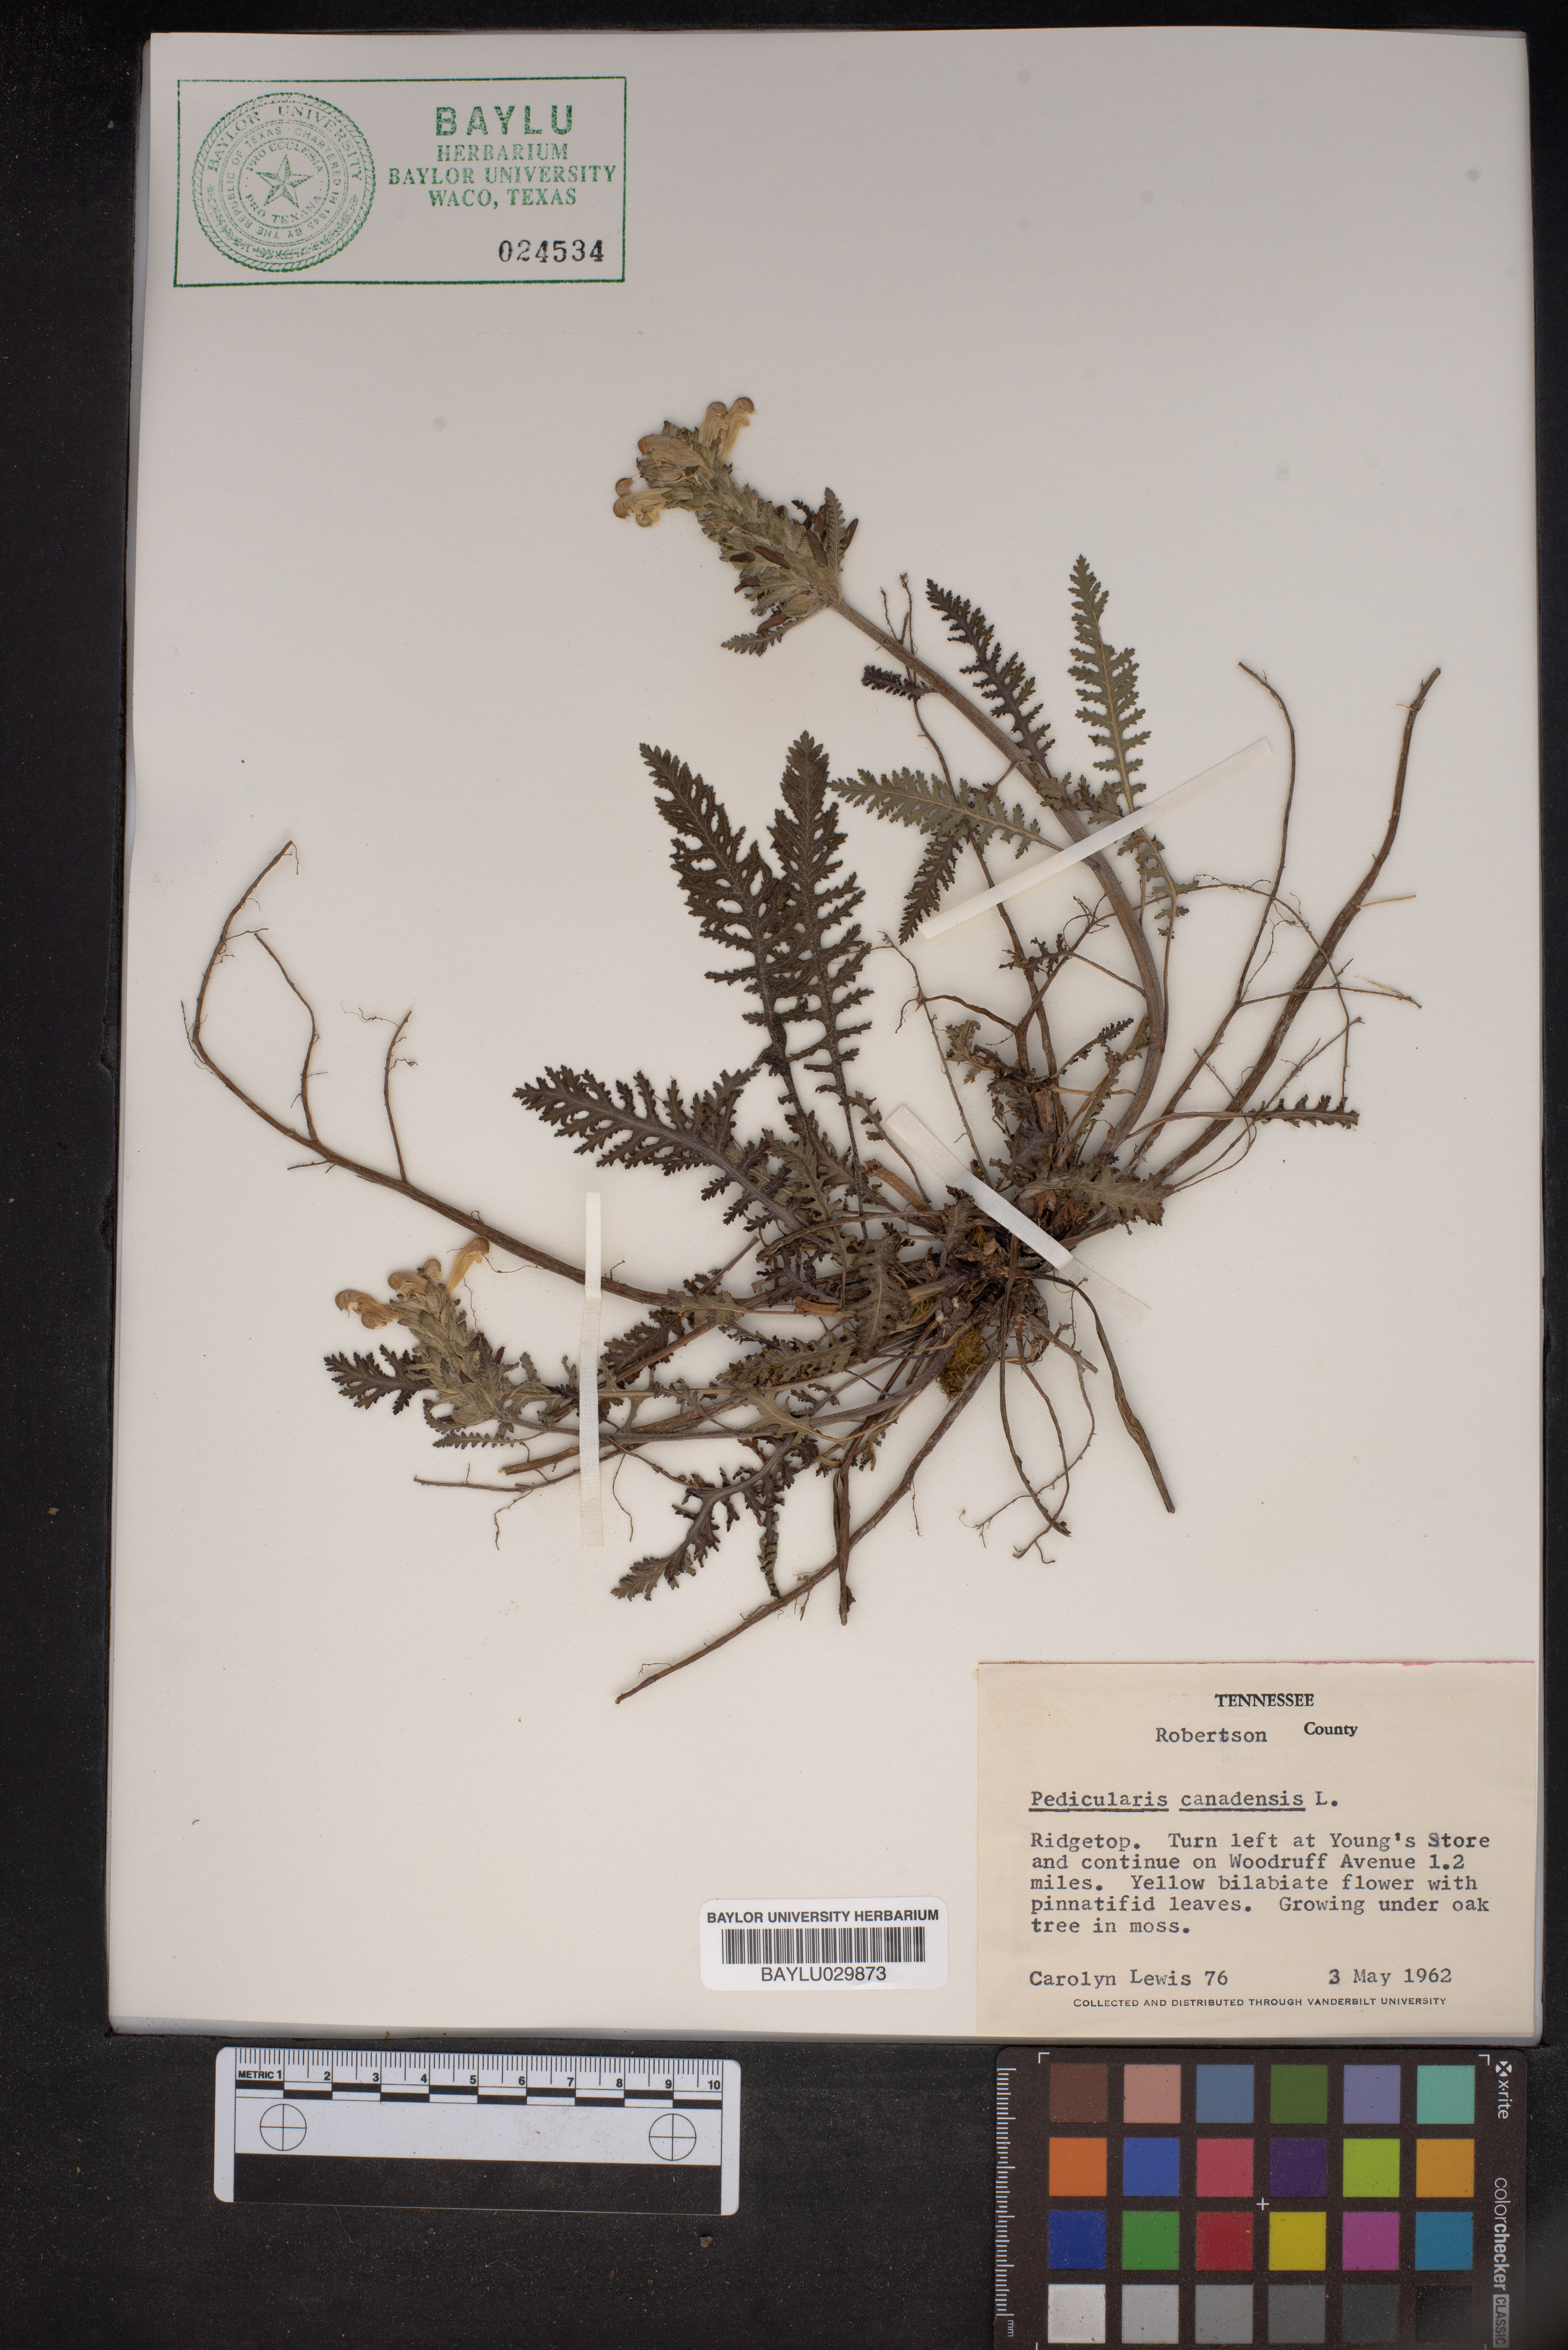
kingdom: Plantae
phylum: Tracheophyta
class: Magnoliopsida
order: Lamiales
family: Orobanchaceae
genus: Pedicularis
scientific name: Pedicularis canadensis
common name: Early lousewort
